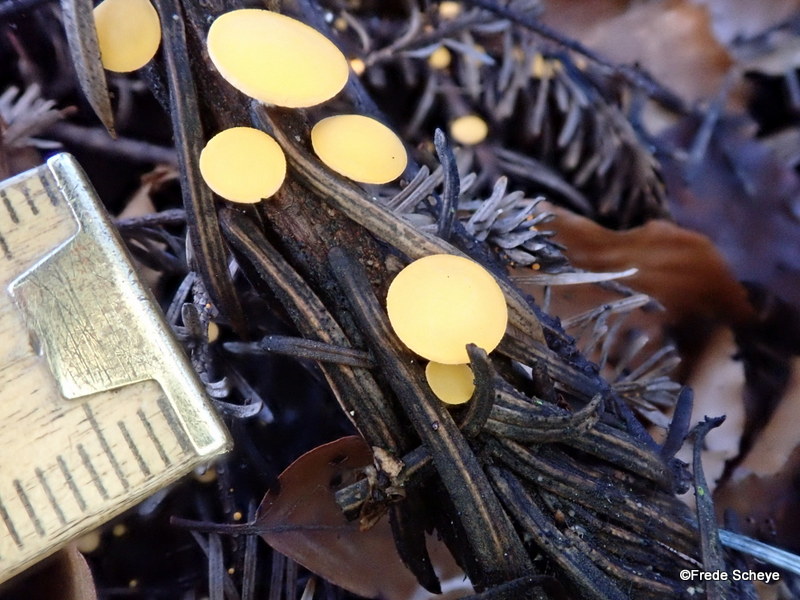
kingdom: Fungi
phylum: Ascomycota
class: Pezizomycetes
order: Pezizales
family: Sarcoscyphaceae
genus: Pithya
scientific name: Pithya vulgaris
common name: stor dukatbæger
